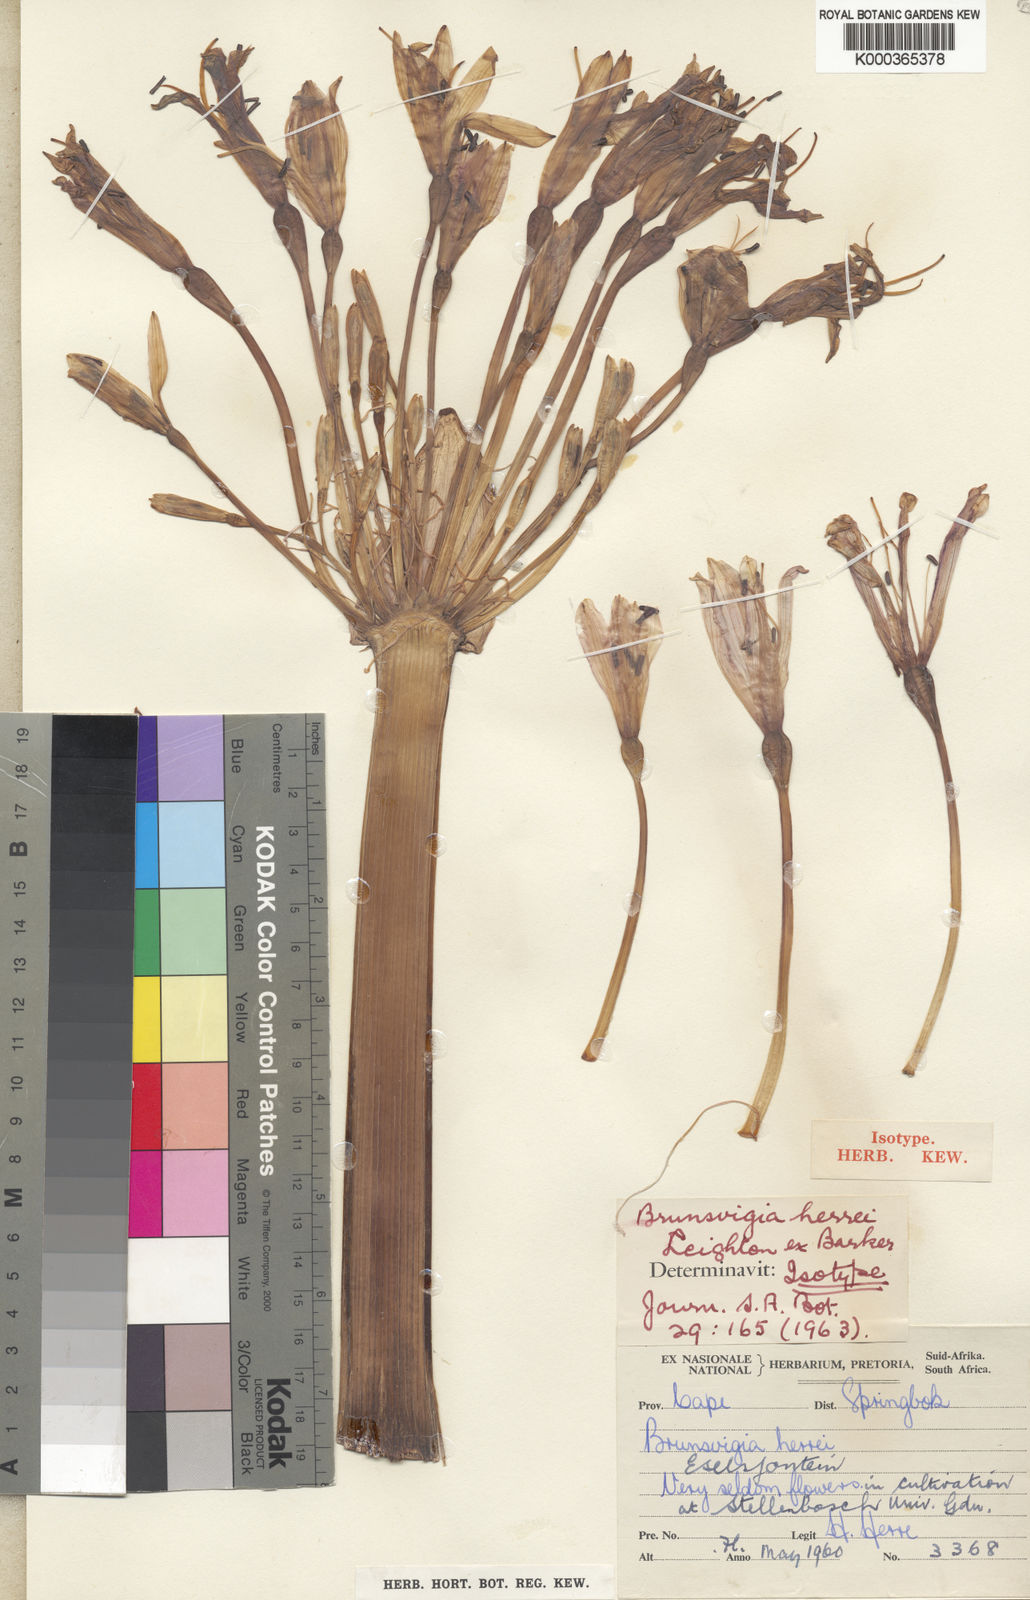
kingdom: Plantae
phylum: Tracheophyta
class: Liliopsida
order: Asparagales
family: Amaryllidaceae
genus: Brunsvigia
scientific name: Brunsvigia herrei
